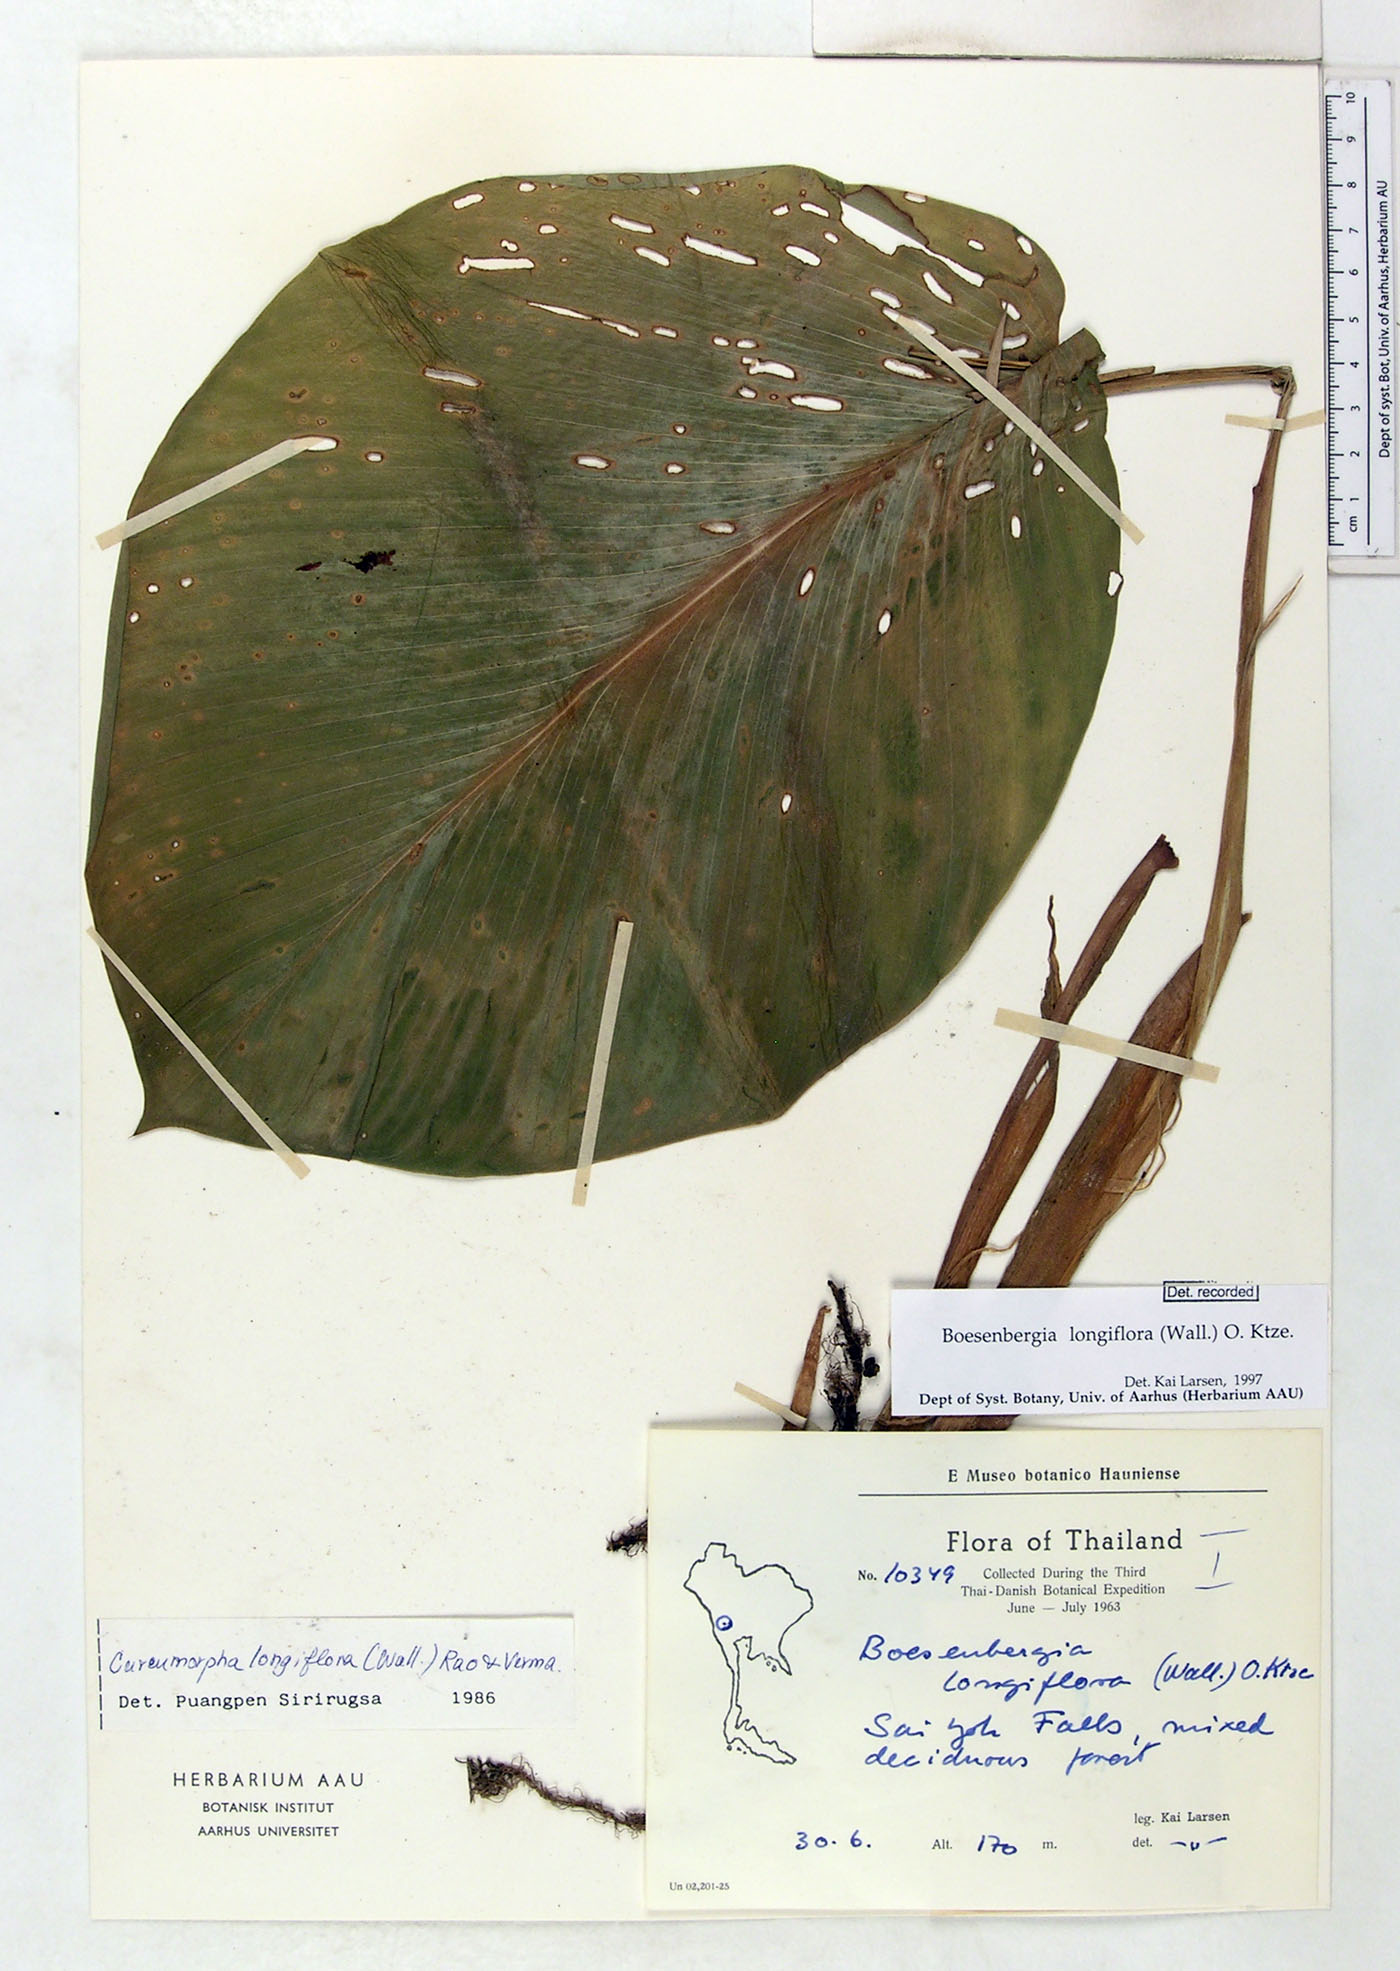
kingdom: Plantae
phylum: Tracheophyta
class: Liliopsida
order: Zingiberales
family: Zingiberaceae
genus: Boesenbergia
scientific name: Boesenbergia longiflora
